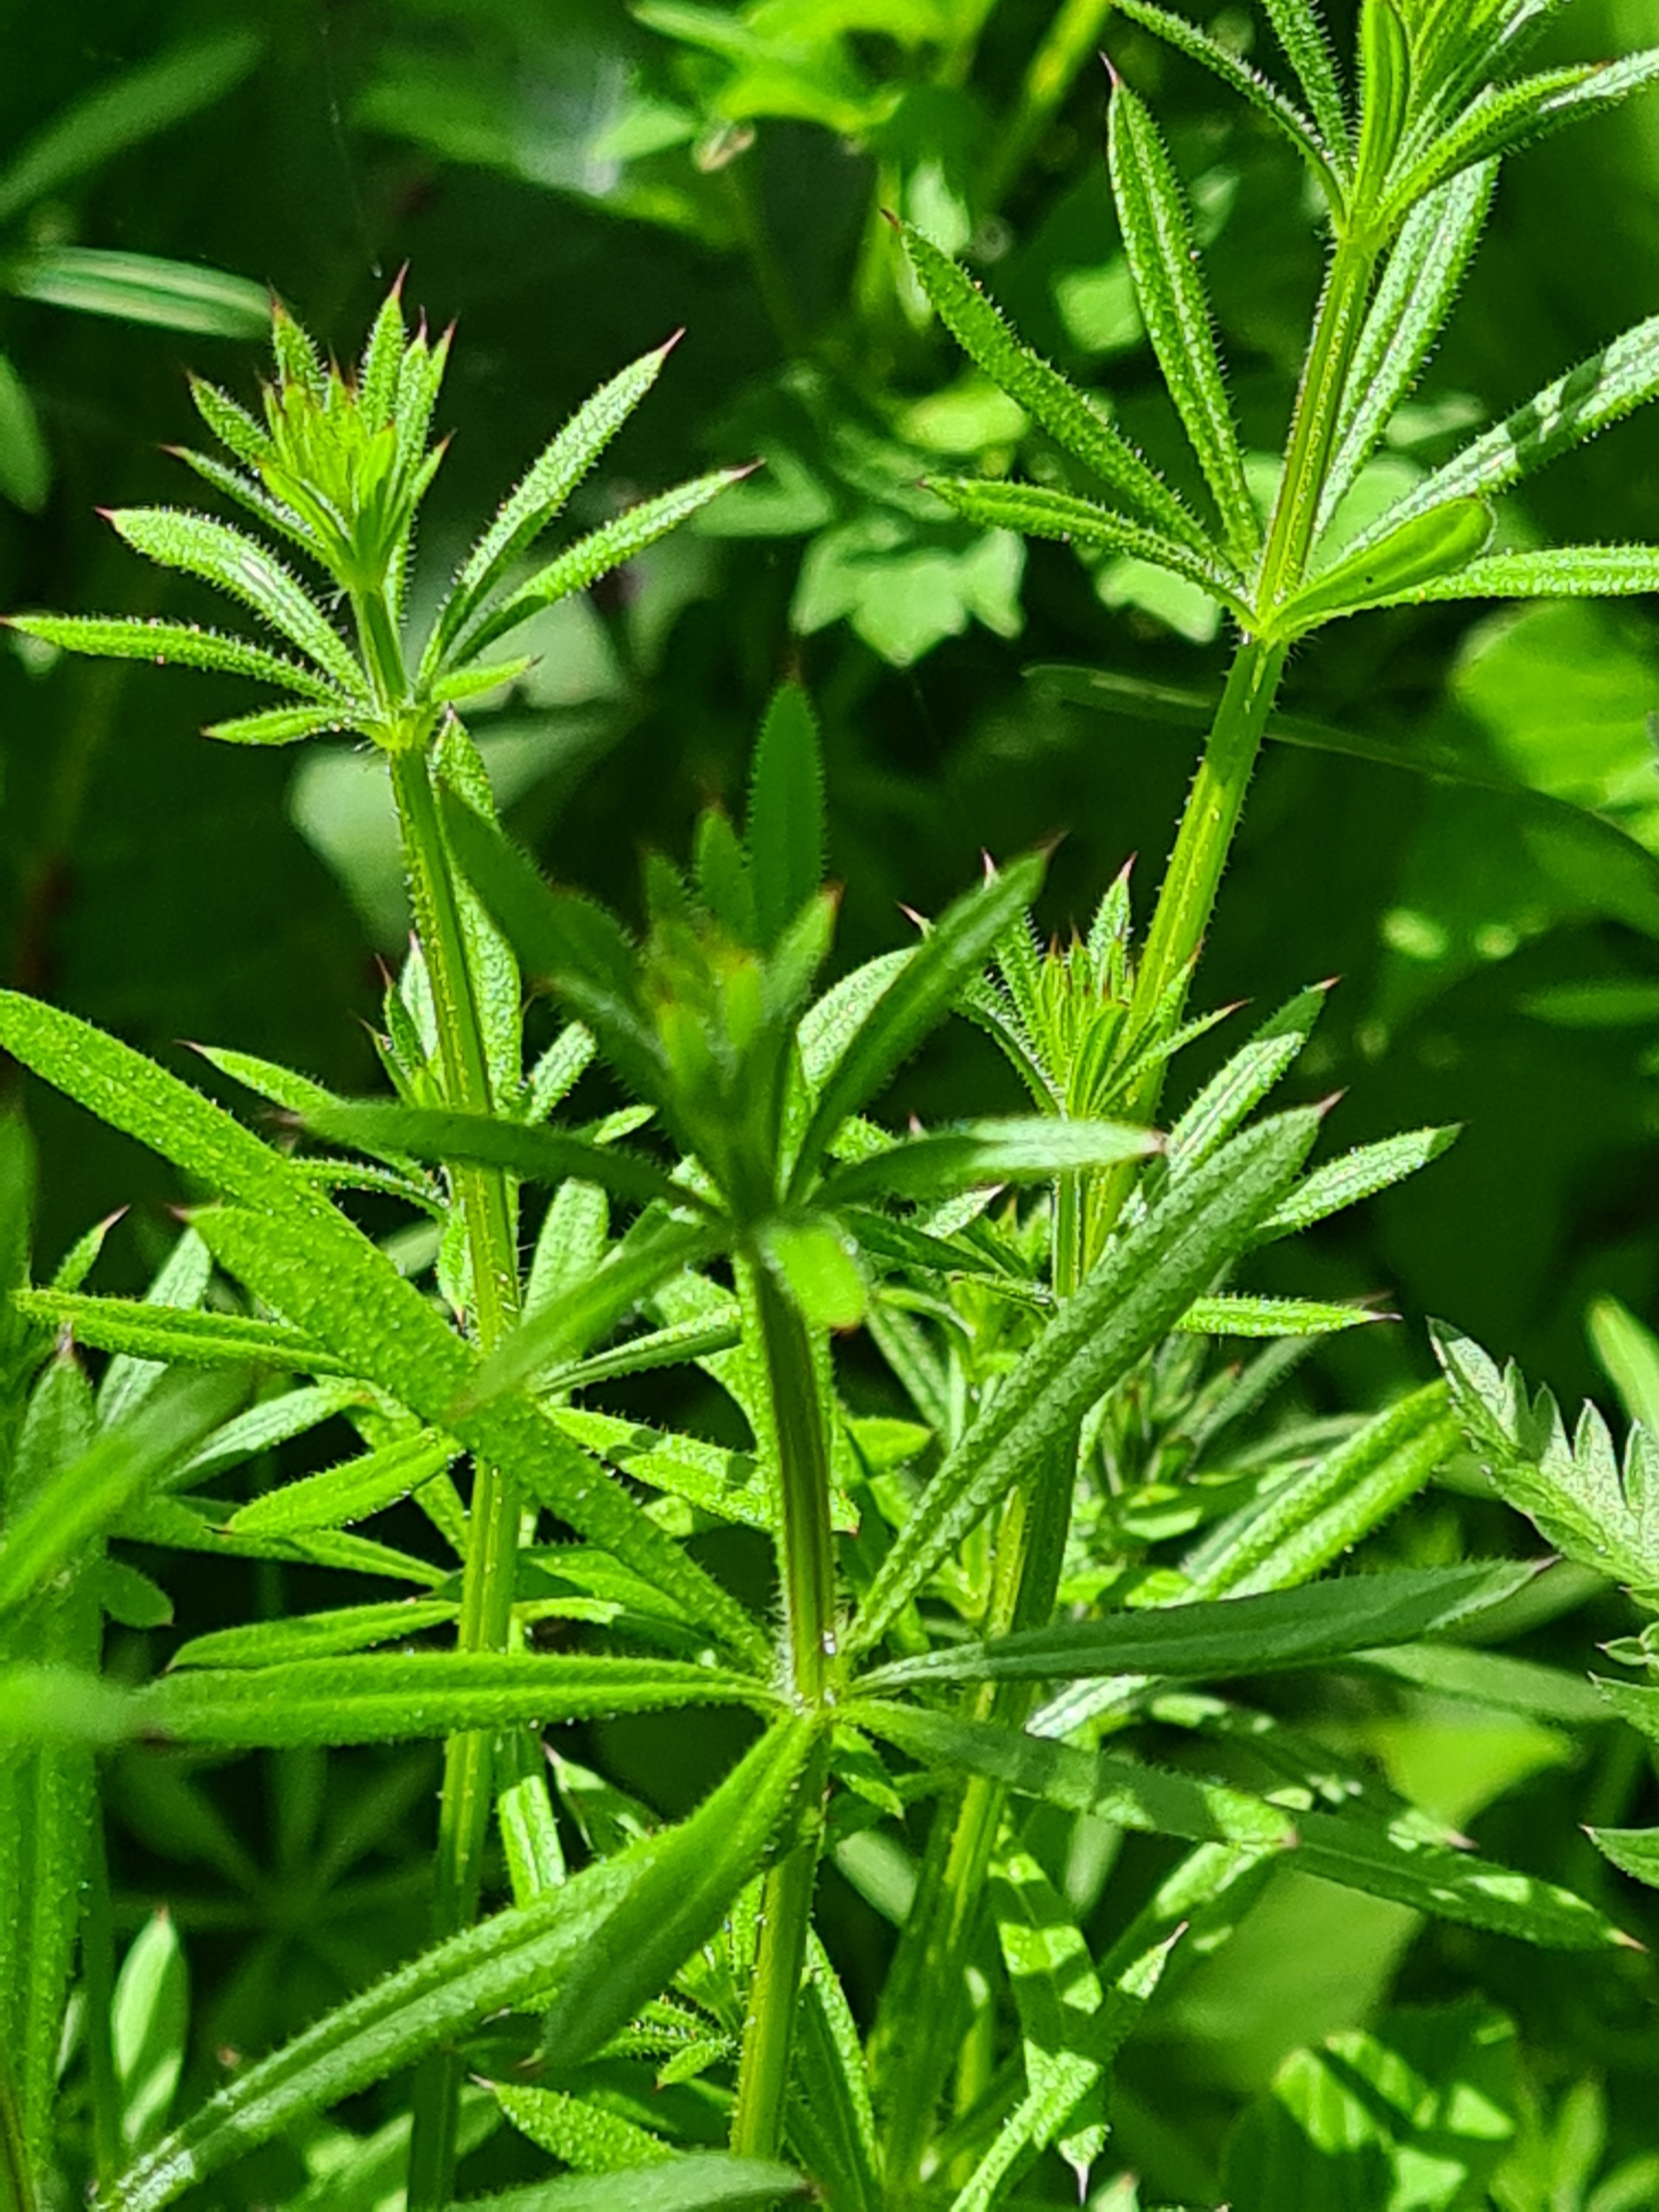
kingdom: Plantae
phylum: Tracheophyta
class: Magnoliopsida
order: Gentianales
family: Rubiaceae
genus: Galium
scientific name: Galium aparine
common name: Burre-snerre
